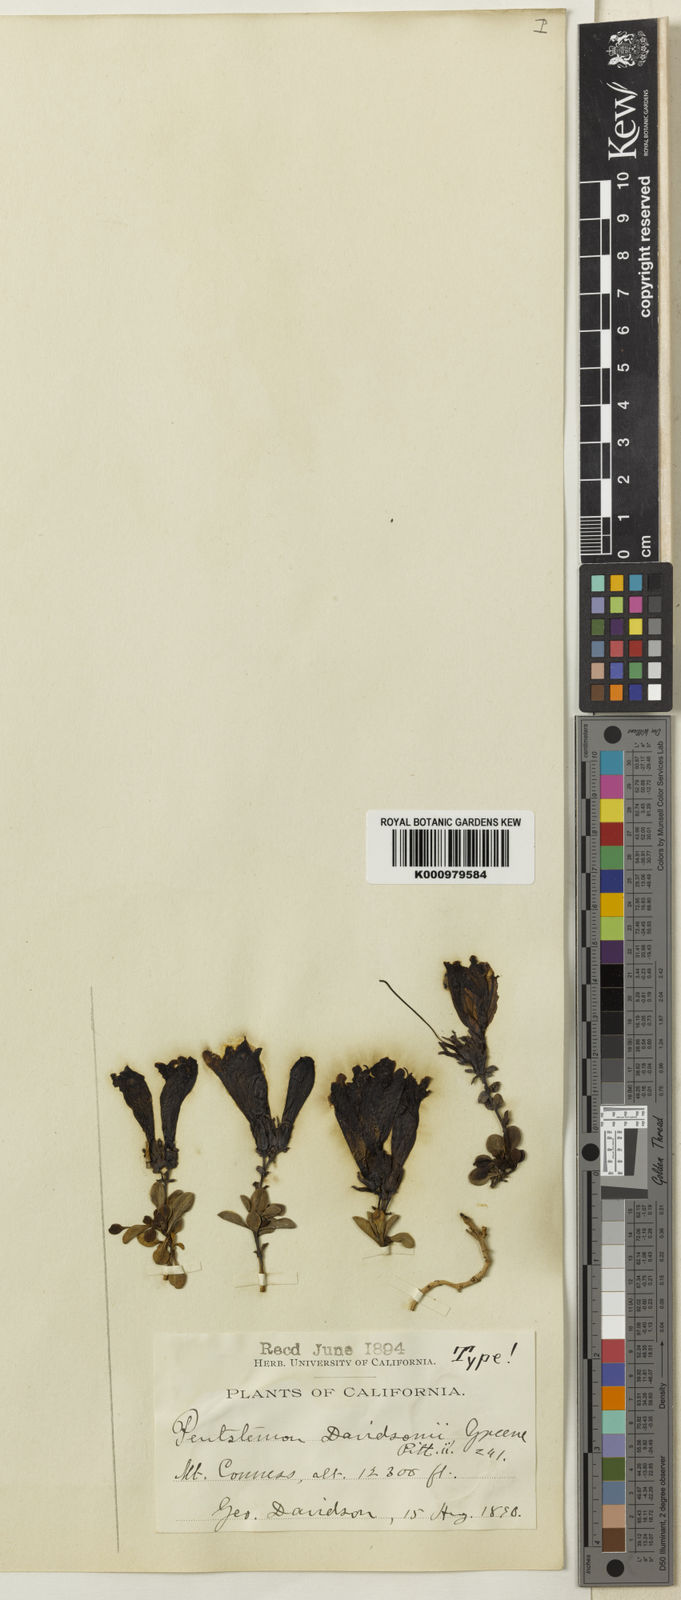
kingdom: Plantae
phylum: Tracheophyta
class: Magnoliopsida
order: Lamiales
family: Plantaginaceae
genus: Penstemon
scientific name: Penstemon davidsonii
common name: Davidson's penstemon
